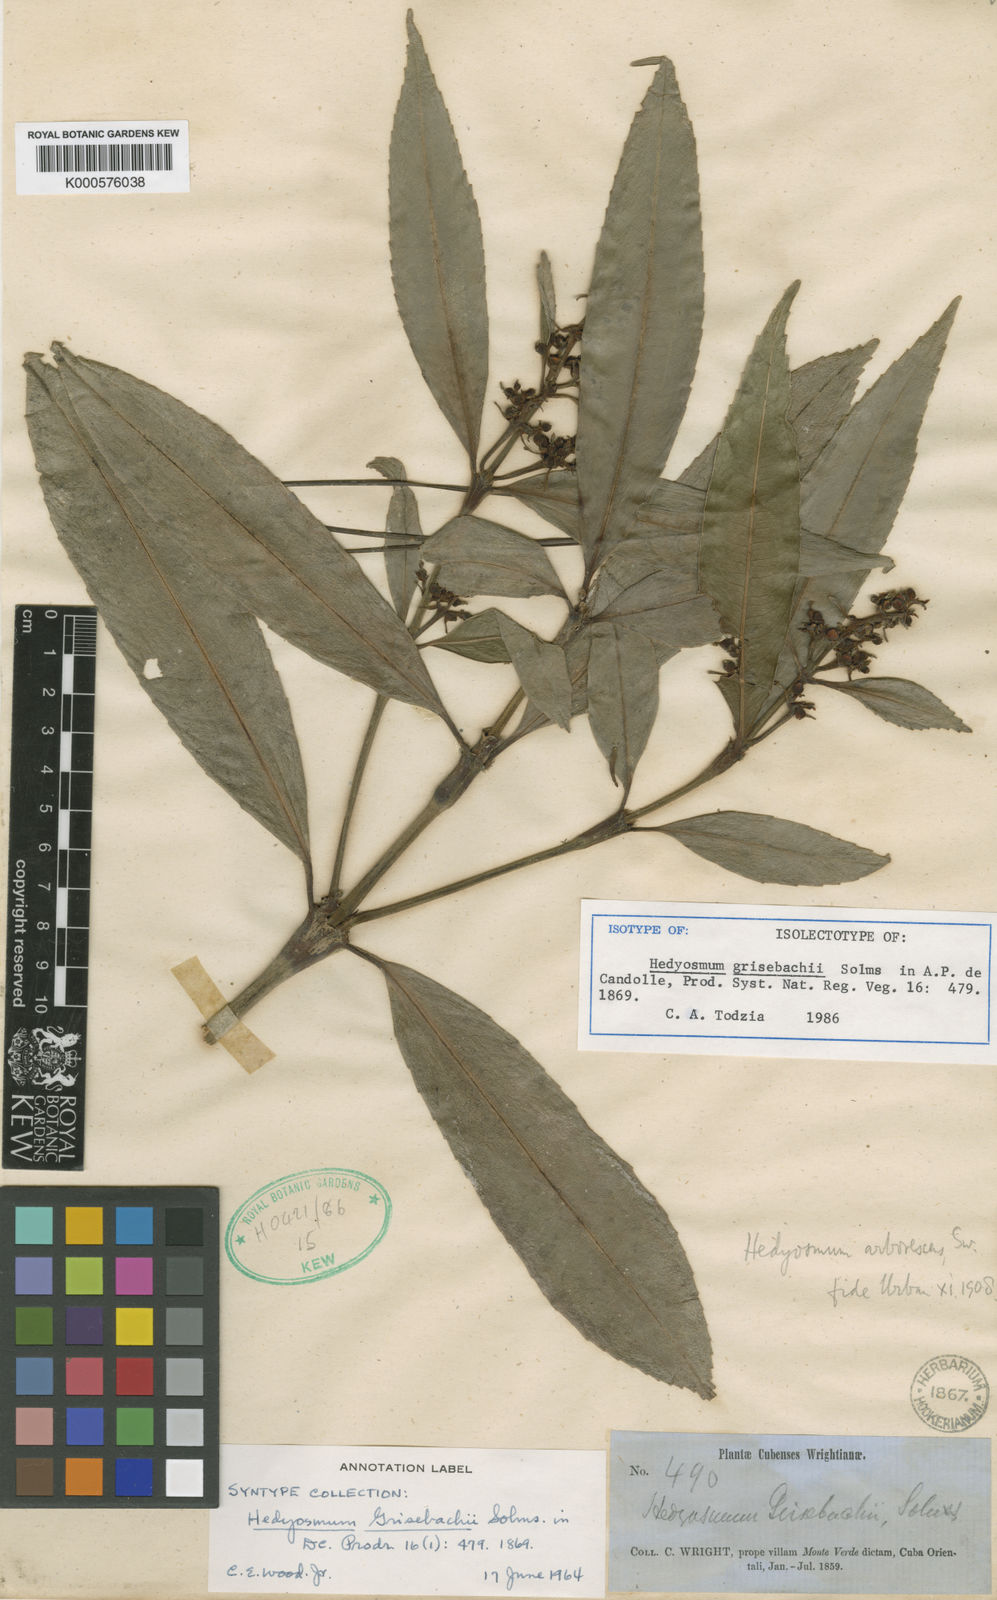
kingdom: Plantae
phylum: Tracheophyta
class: Magnoliopsida
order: Chloranthales
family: Chloranthaceae
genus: Hedyosmum
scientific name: Hedyosmum grisebachii
